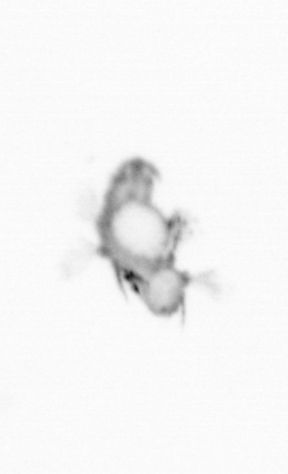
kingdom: Animalia
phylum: Annelida
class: Polychaeta
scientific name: Polychaeta
